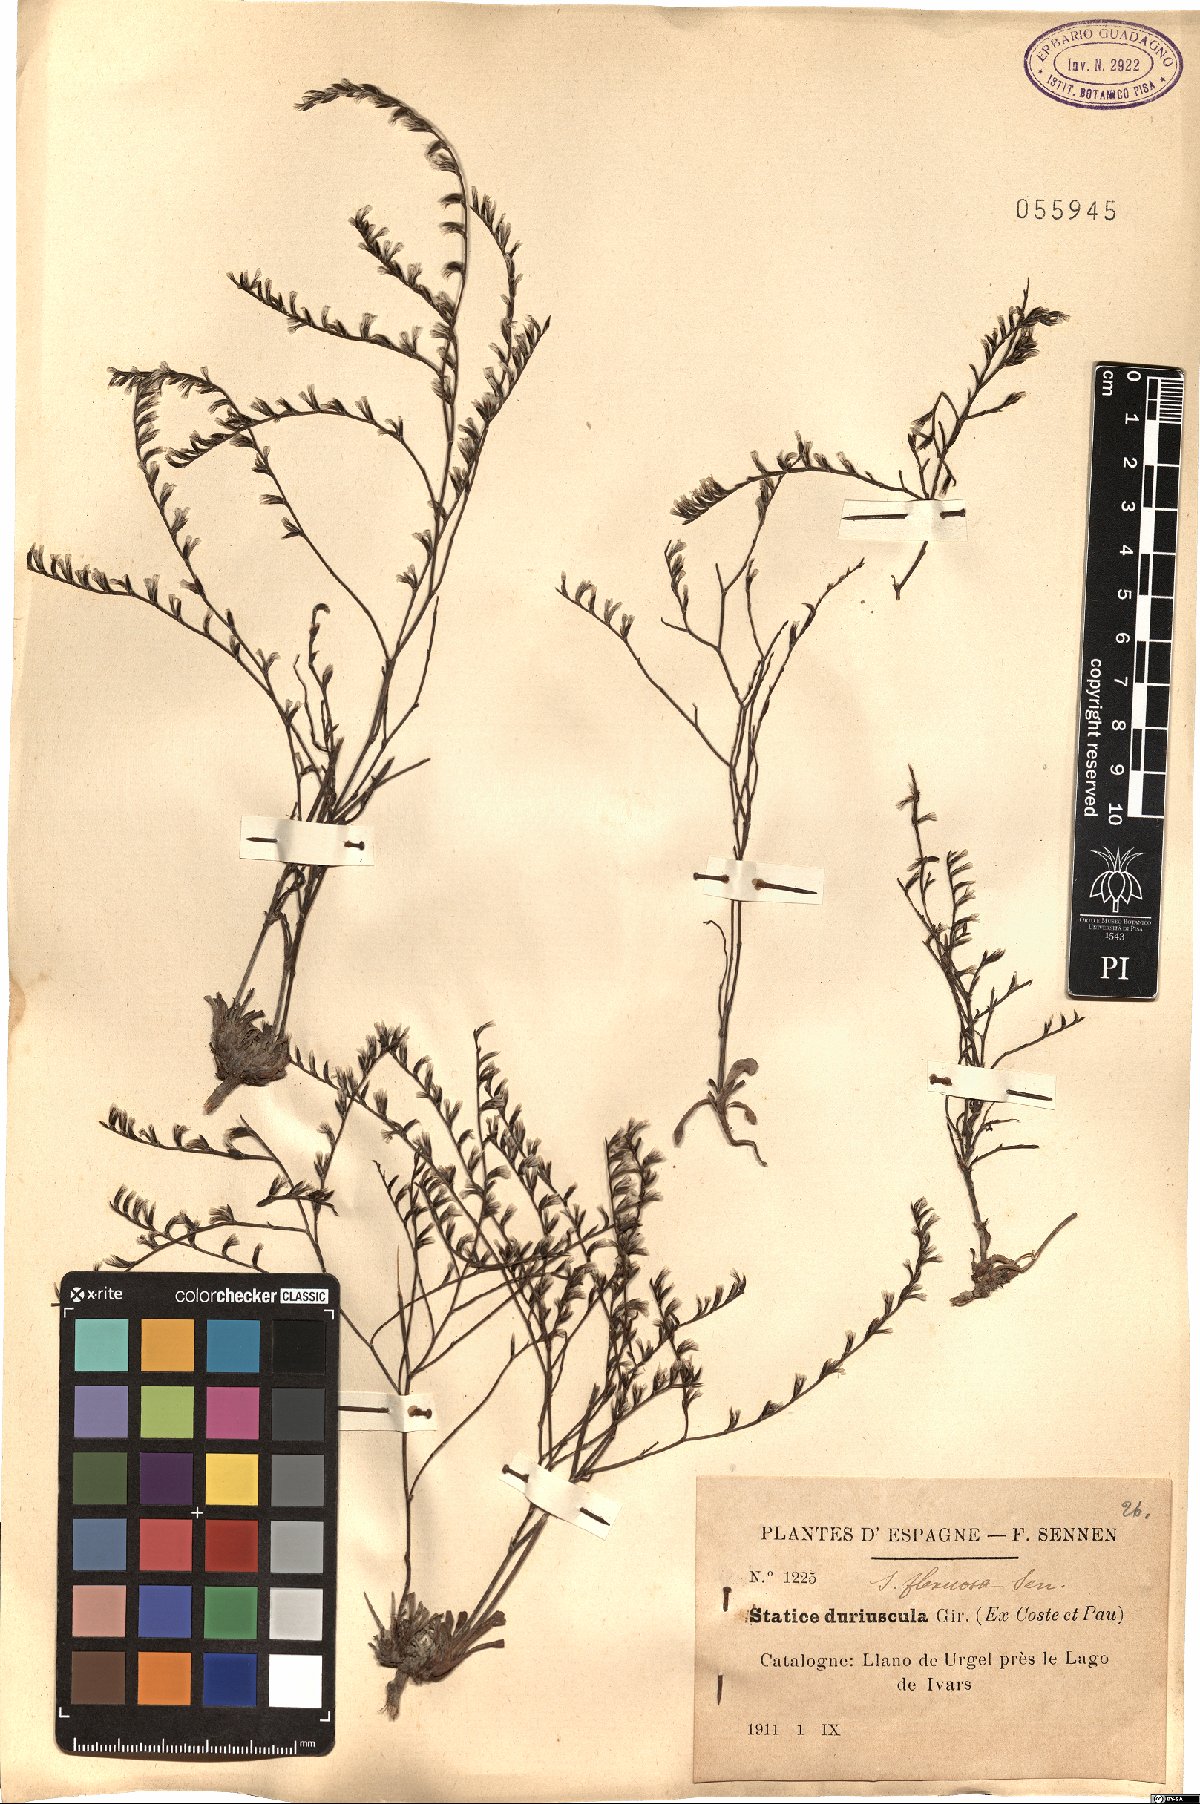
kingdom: Plantae
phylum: Tracheophyta
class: Magnoliopsida
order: Caryophyllales
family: Plumbaginaceae
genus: Limonium
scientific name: Limonium duriusculum
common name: European sea lavendar
